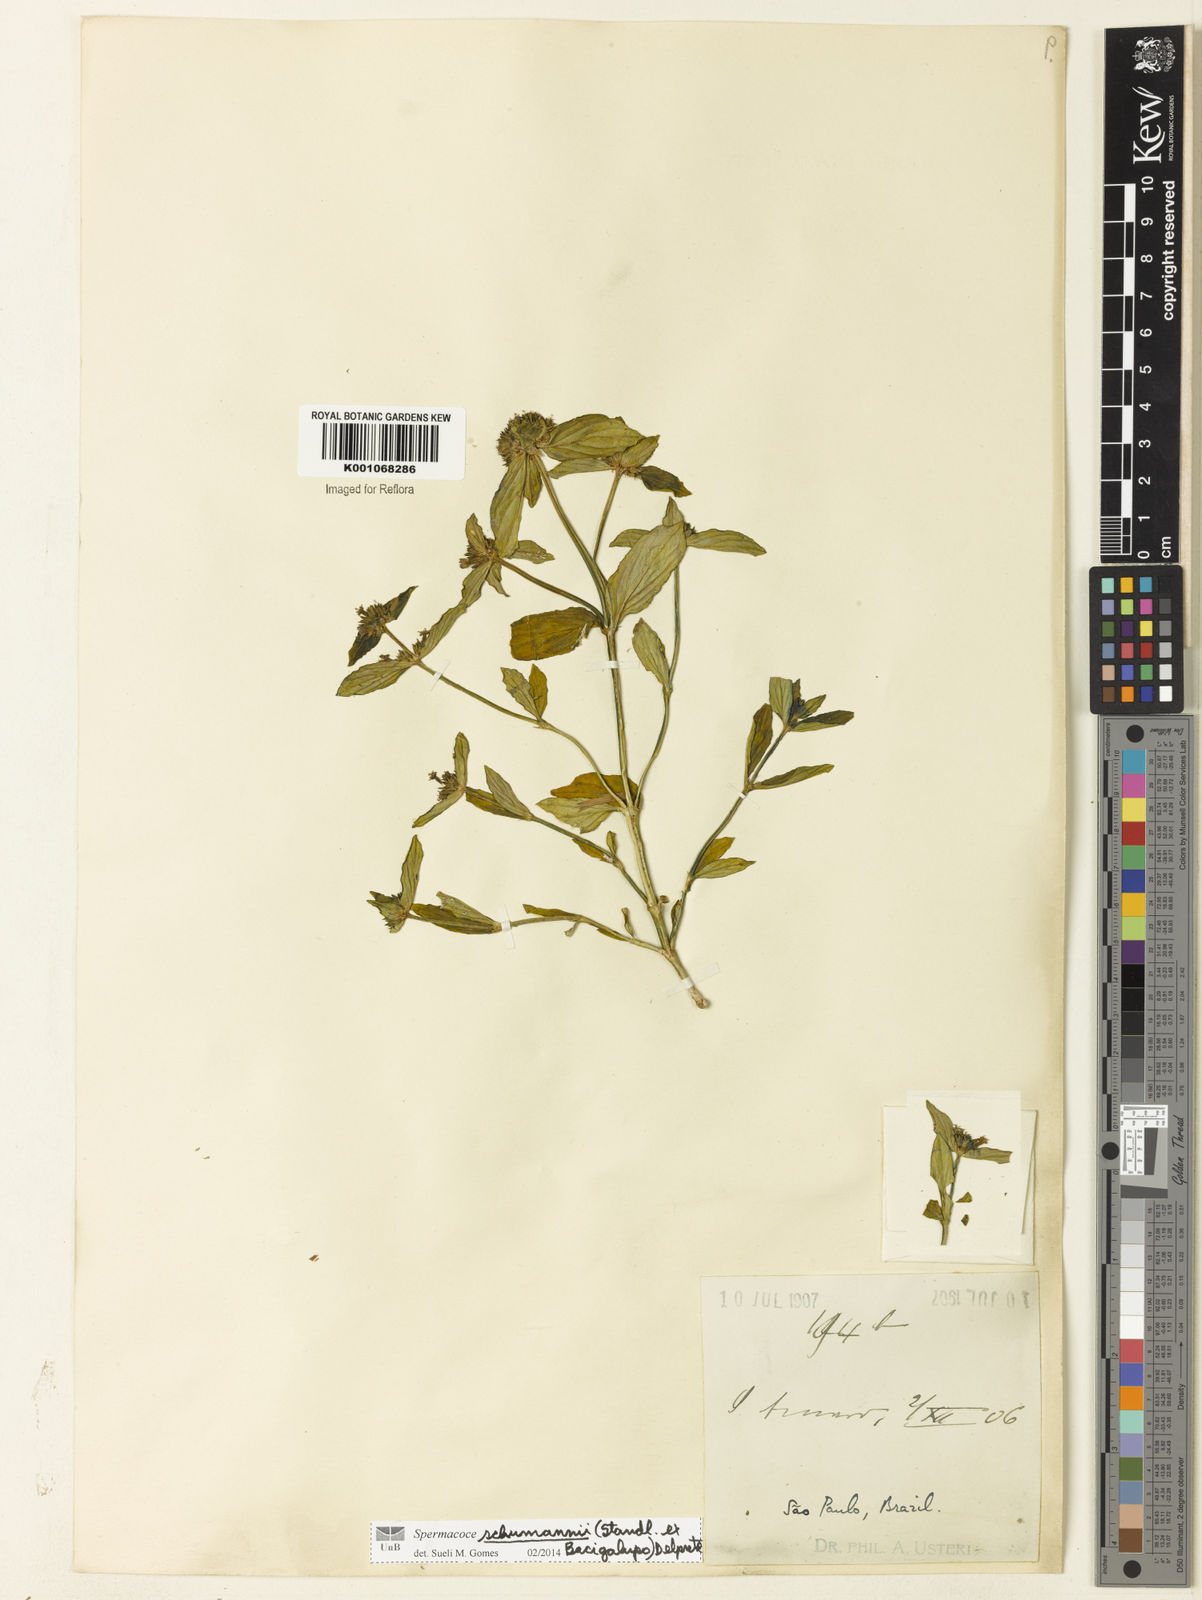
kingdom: Plantae
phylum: Tracheophyta
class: Magnoliopsida
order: Gentianales
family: Rubiaceae
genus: Spermacoce
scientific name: Spermacoce schumannii
